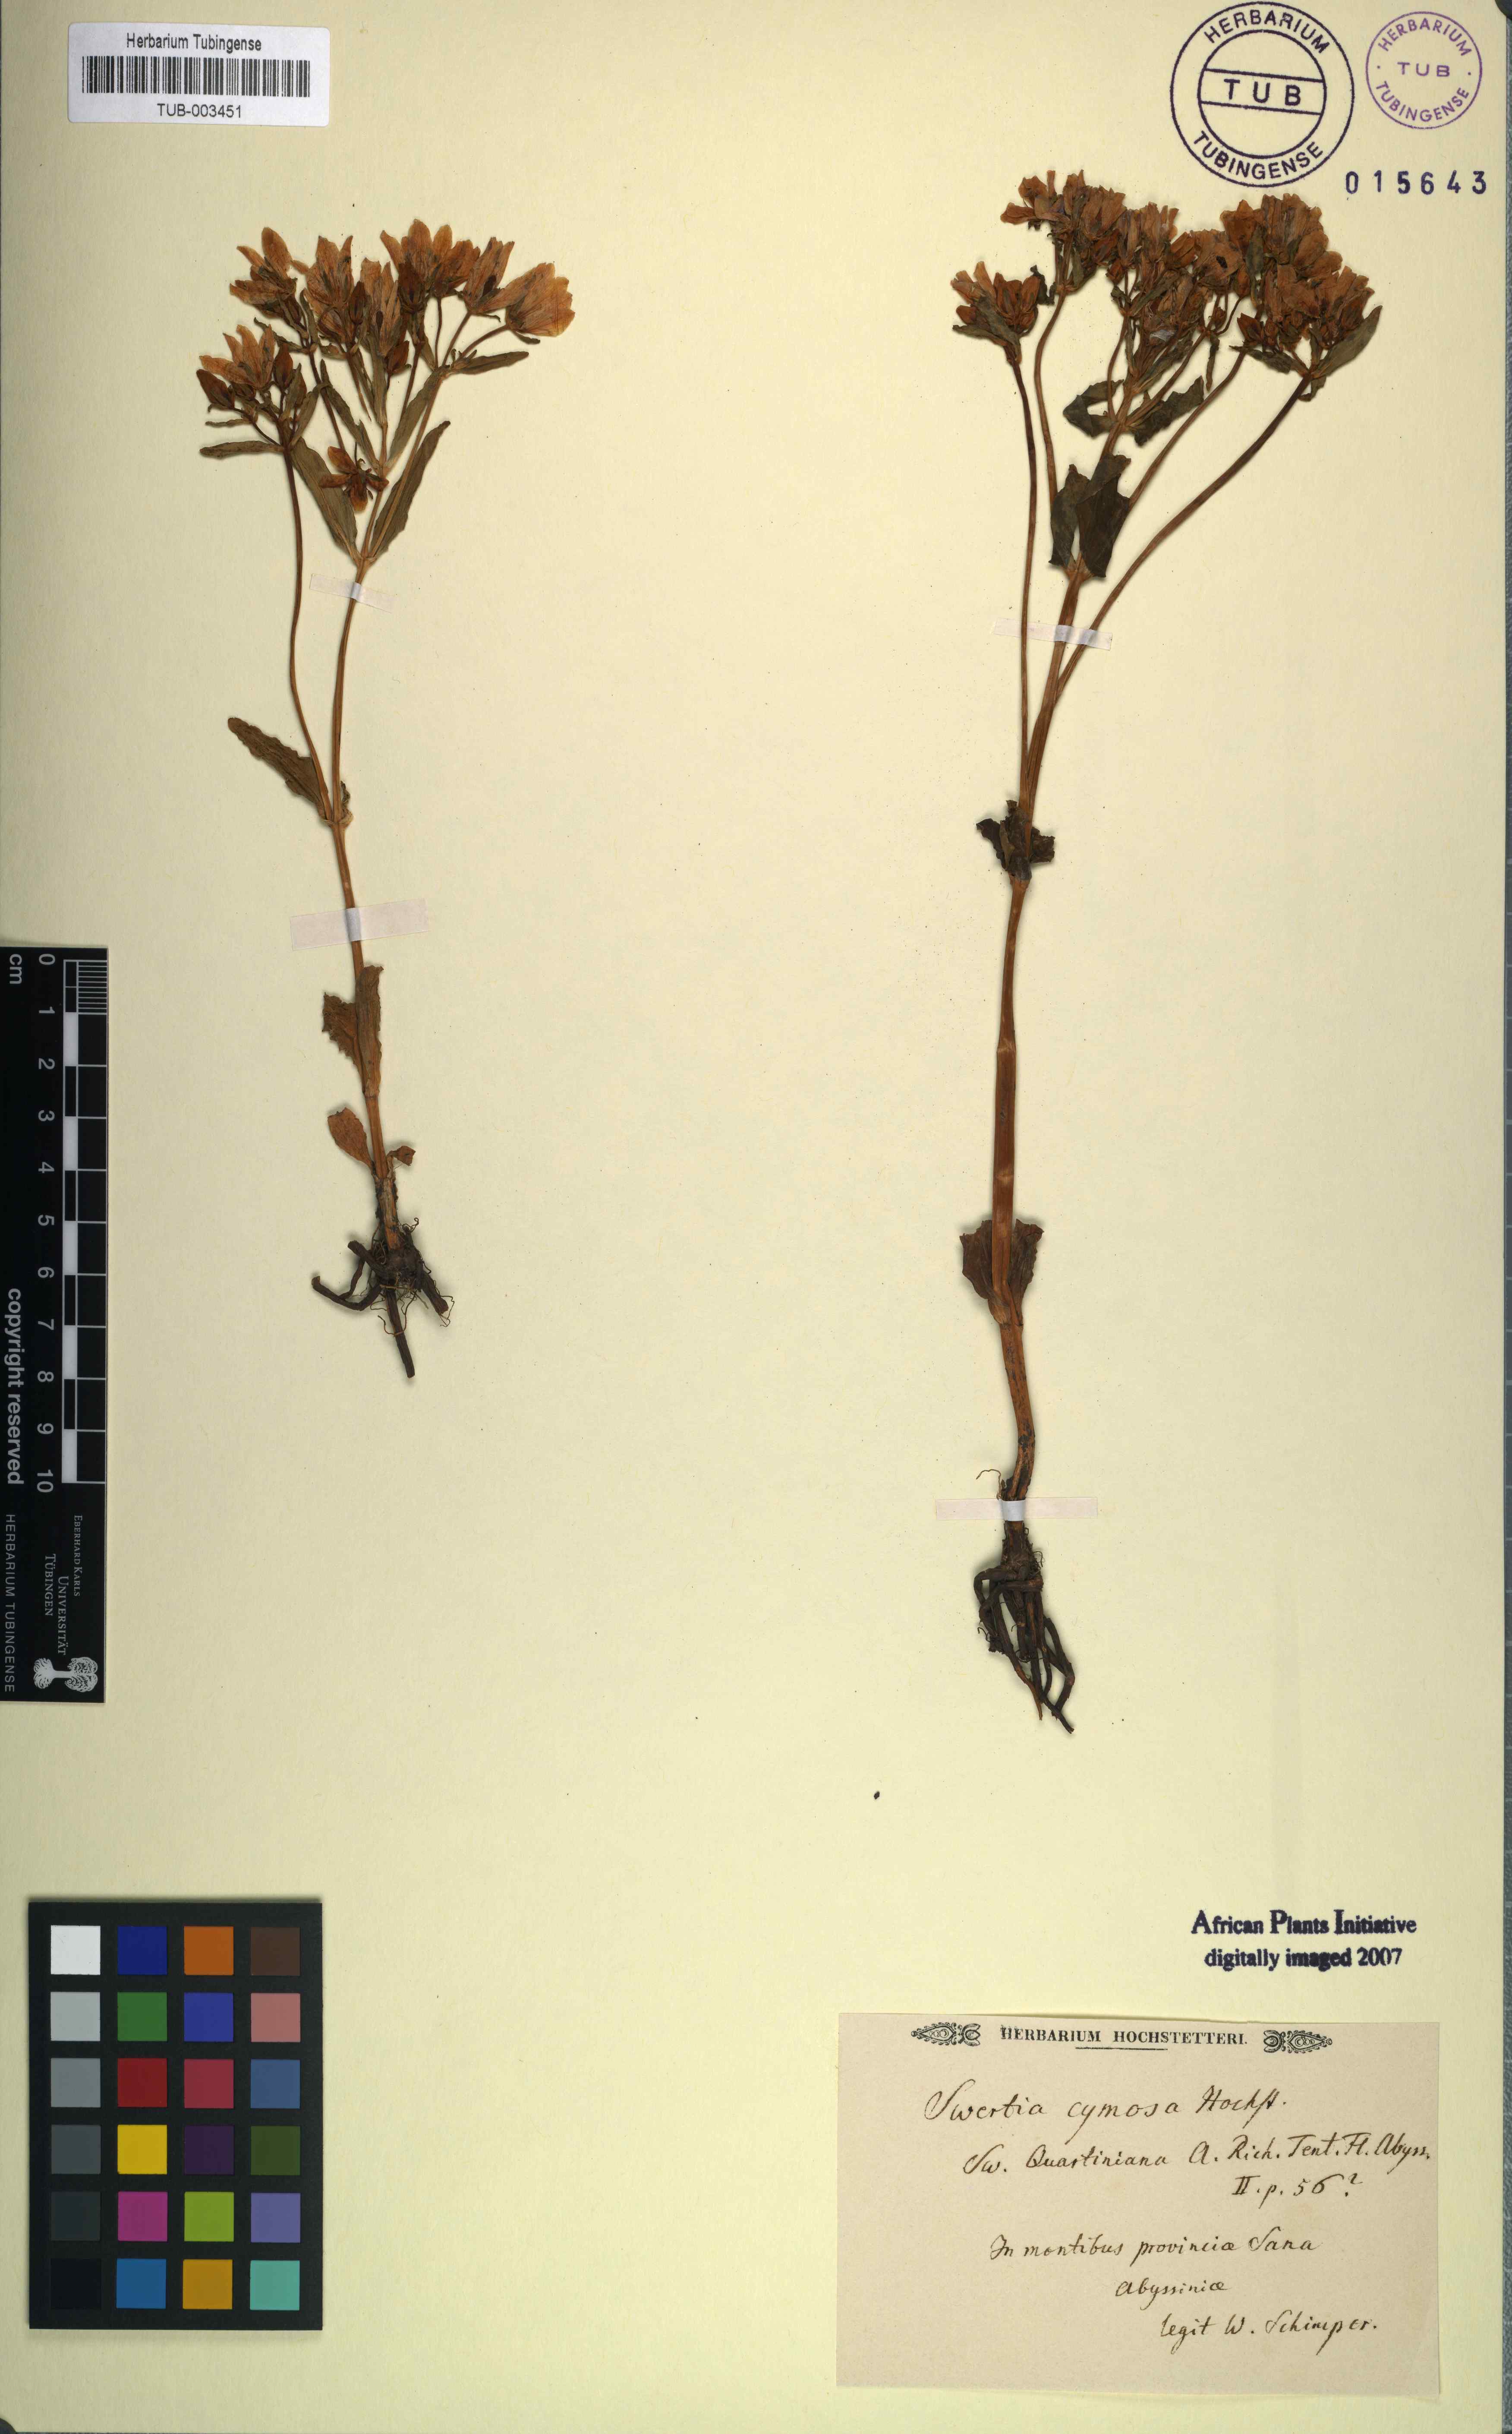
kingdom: Plantae
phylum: Tracheophyta
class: Magnoliopsida
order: Gentianales
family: Gentianaceae
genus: Swertia
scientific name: Swertia quartiniana
